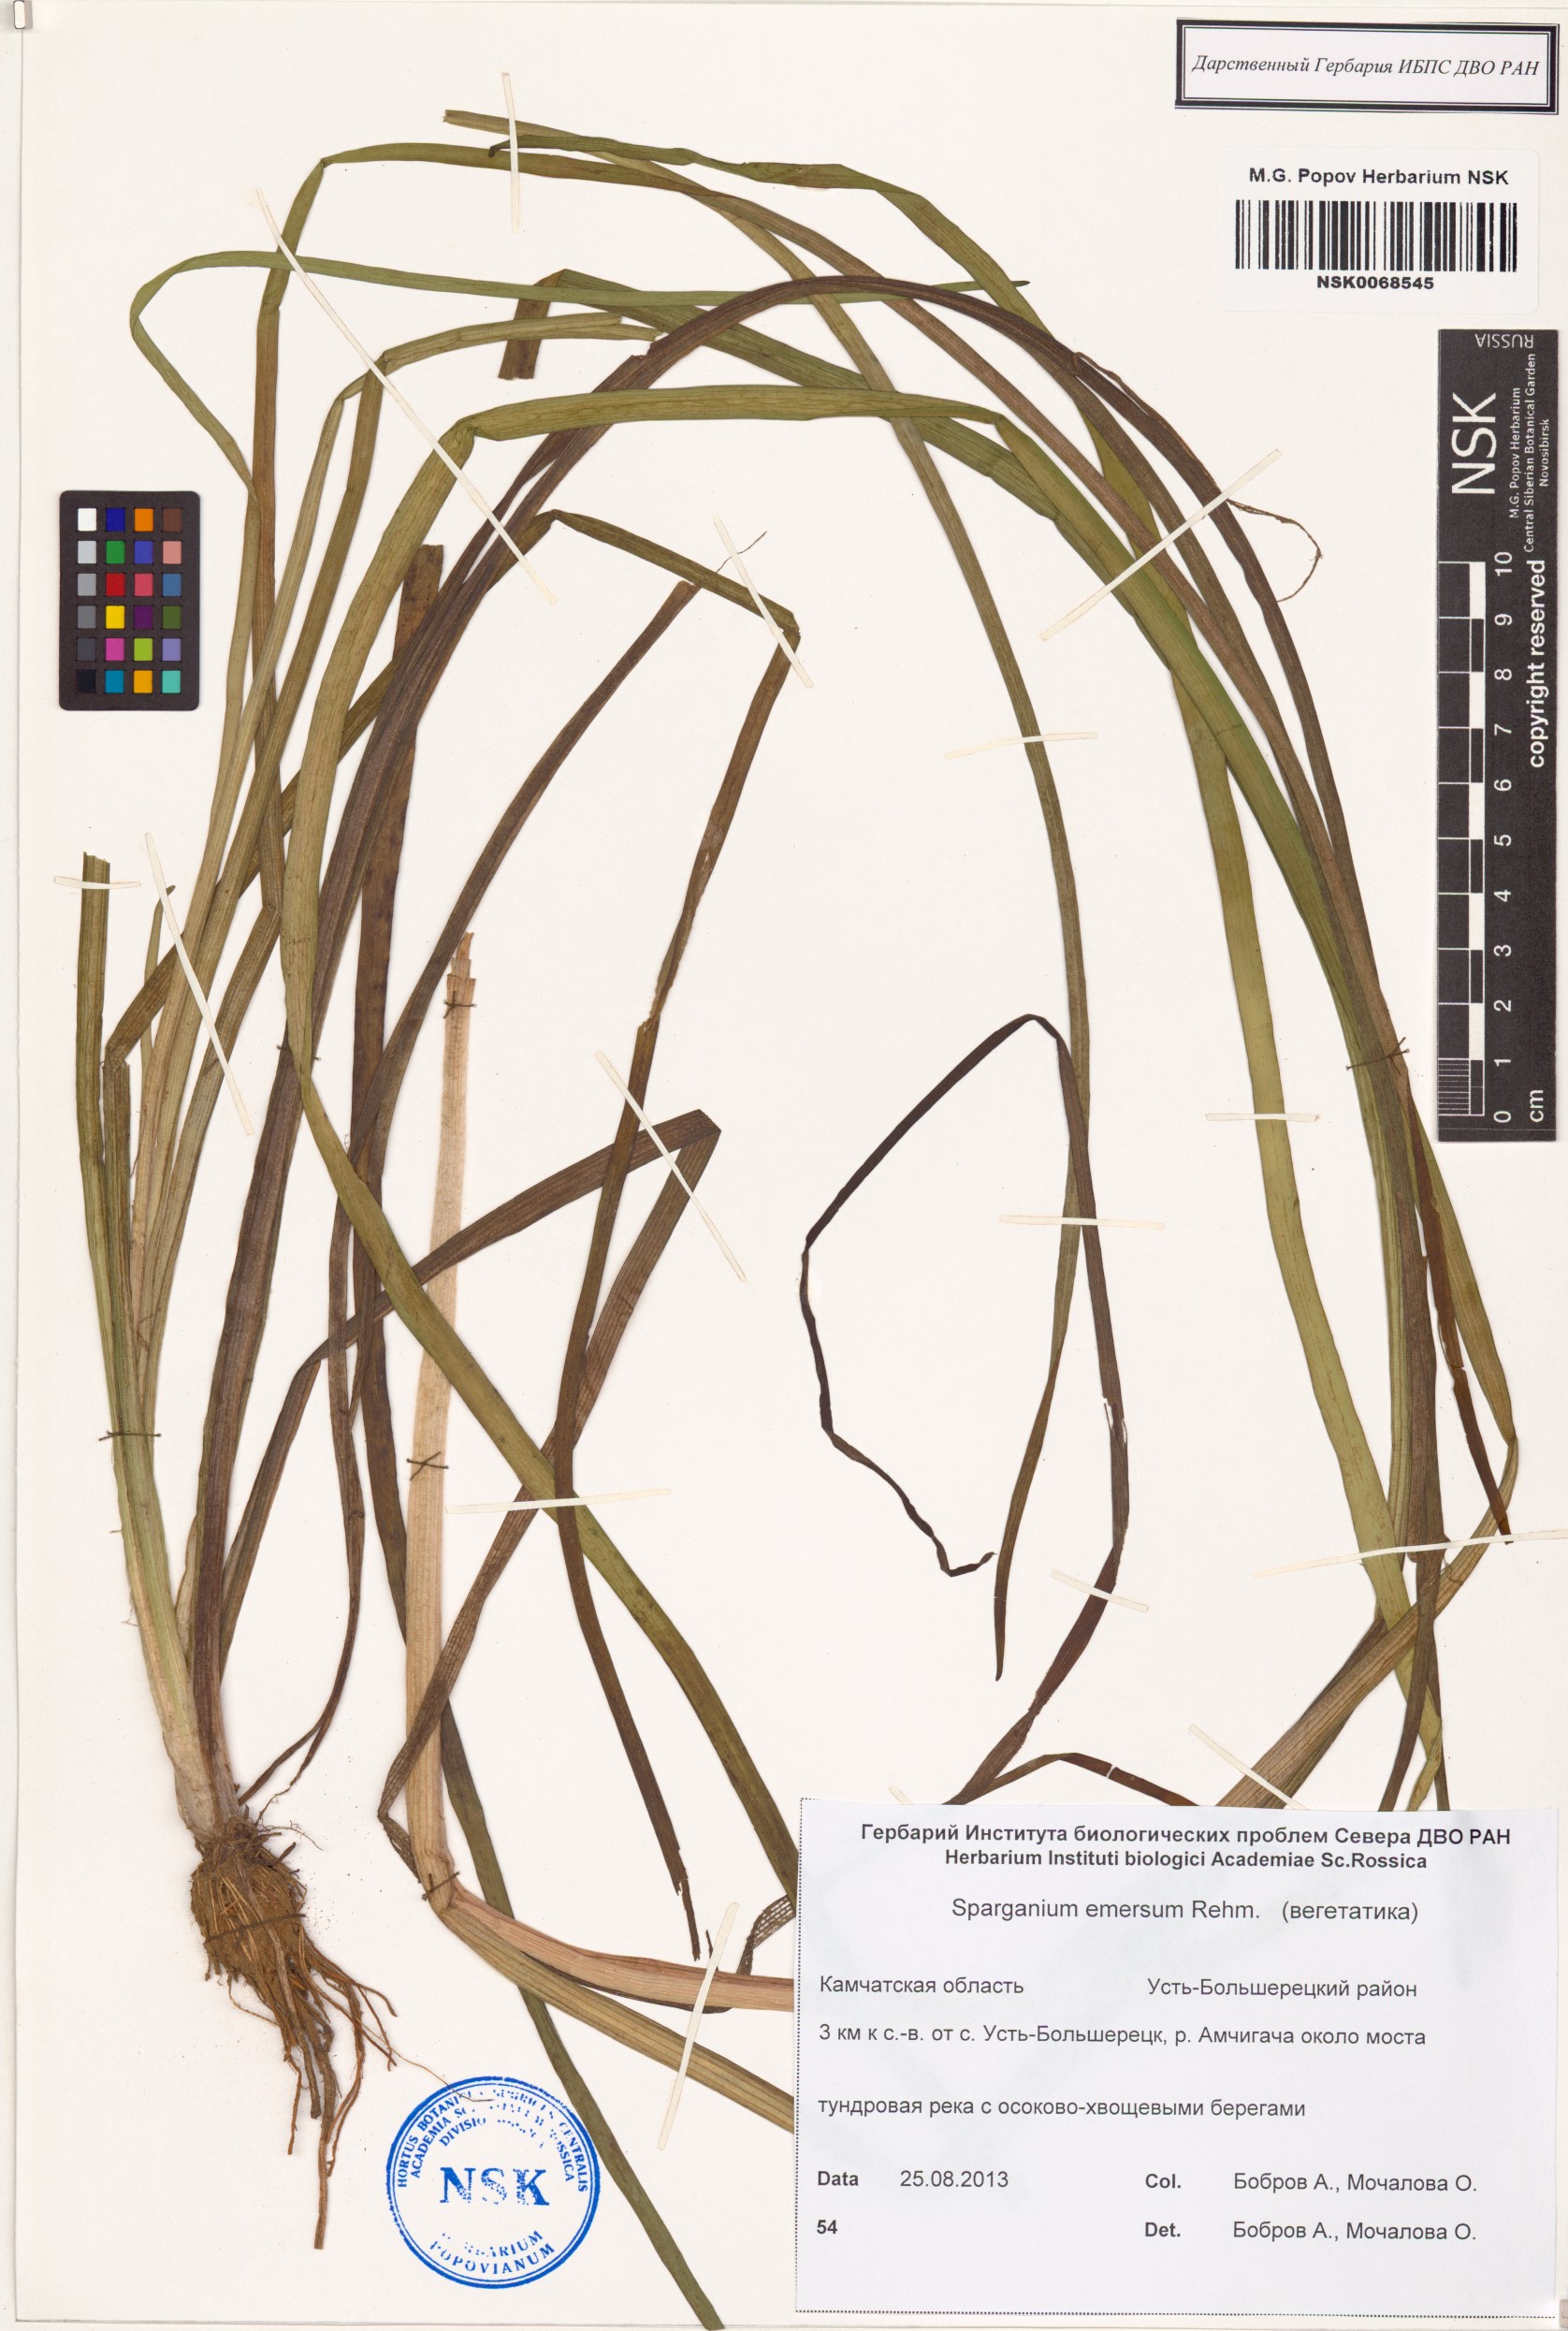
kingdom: Plantae
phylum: Tracheophyta
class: Liliopsida
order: Poales
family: Typhaceae
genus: Sparganium
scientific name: Sparganium emersum
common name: Unbranched bur-reed
